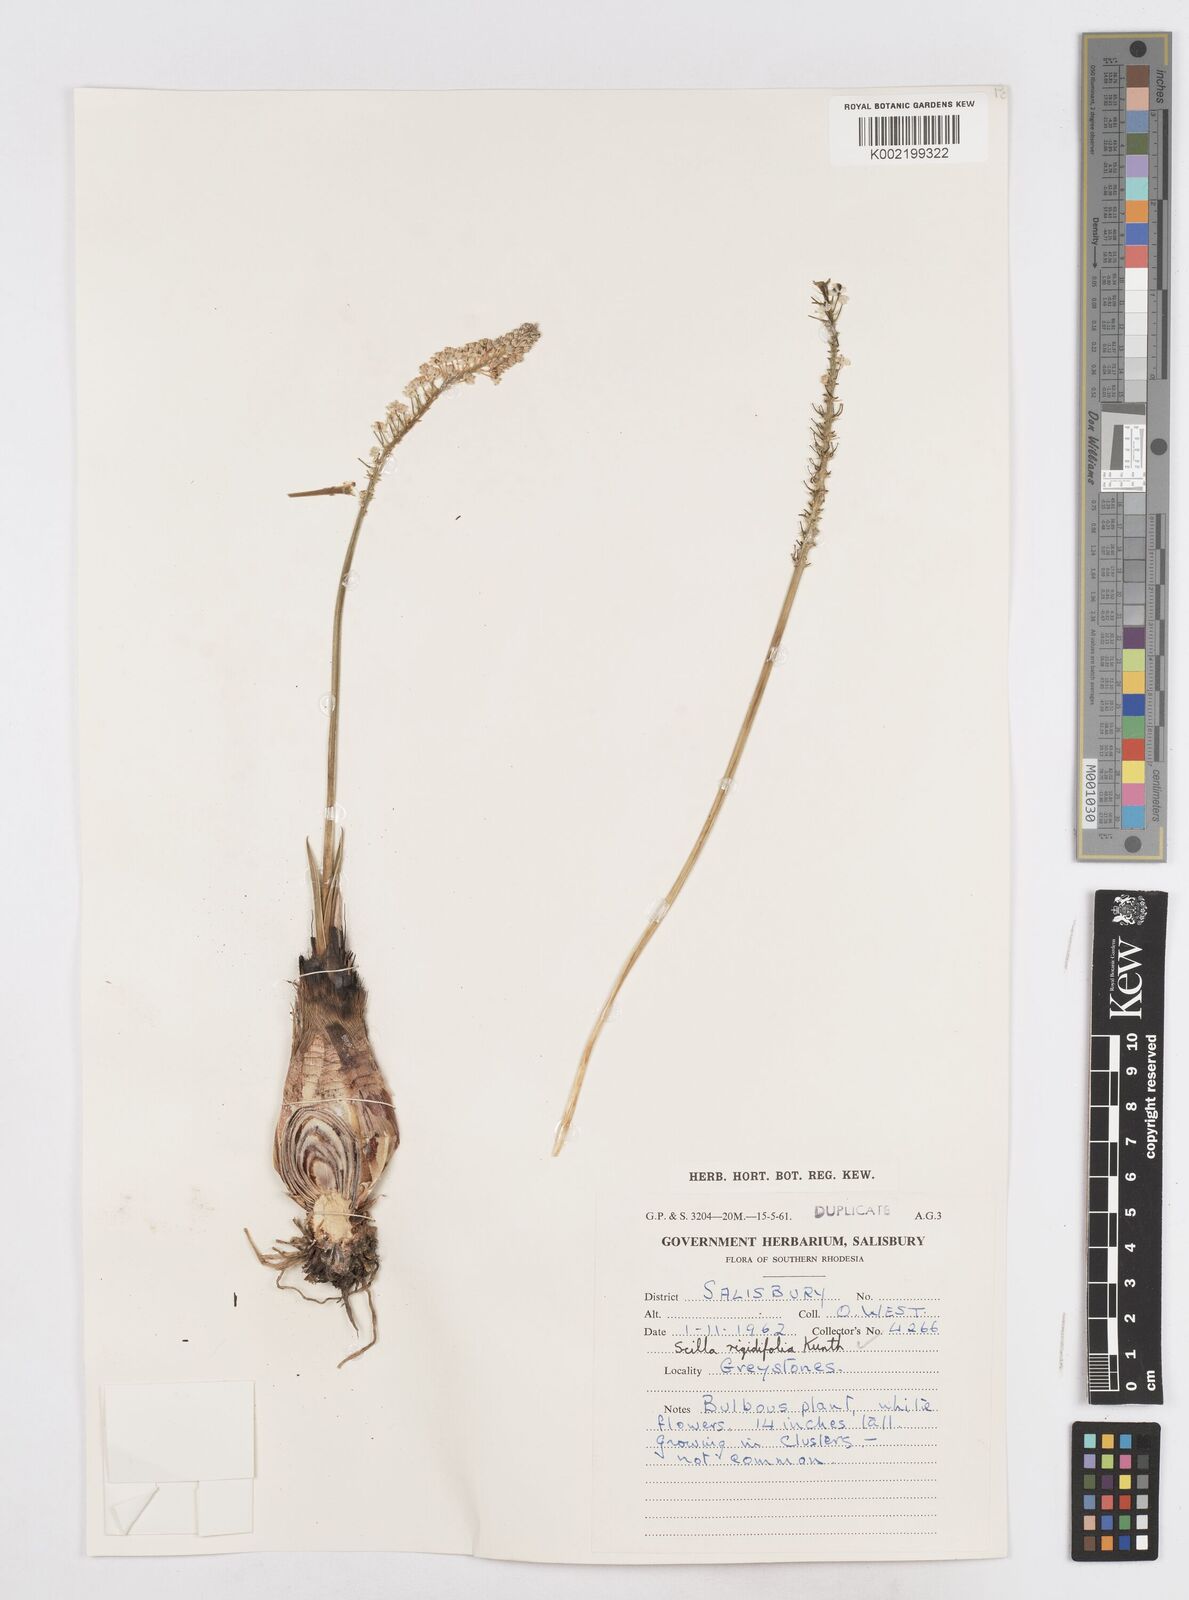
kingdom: Plantae
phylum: Tracheophyta
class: Liliopsida
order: Asparagales
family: Asparagaceae
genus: Schizocarphus
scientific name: Schizocarphus nervosus
